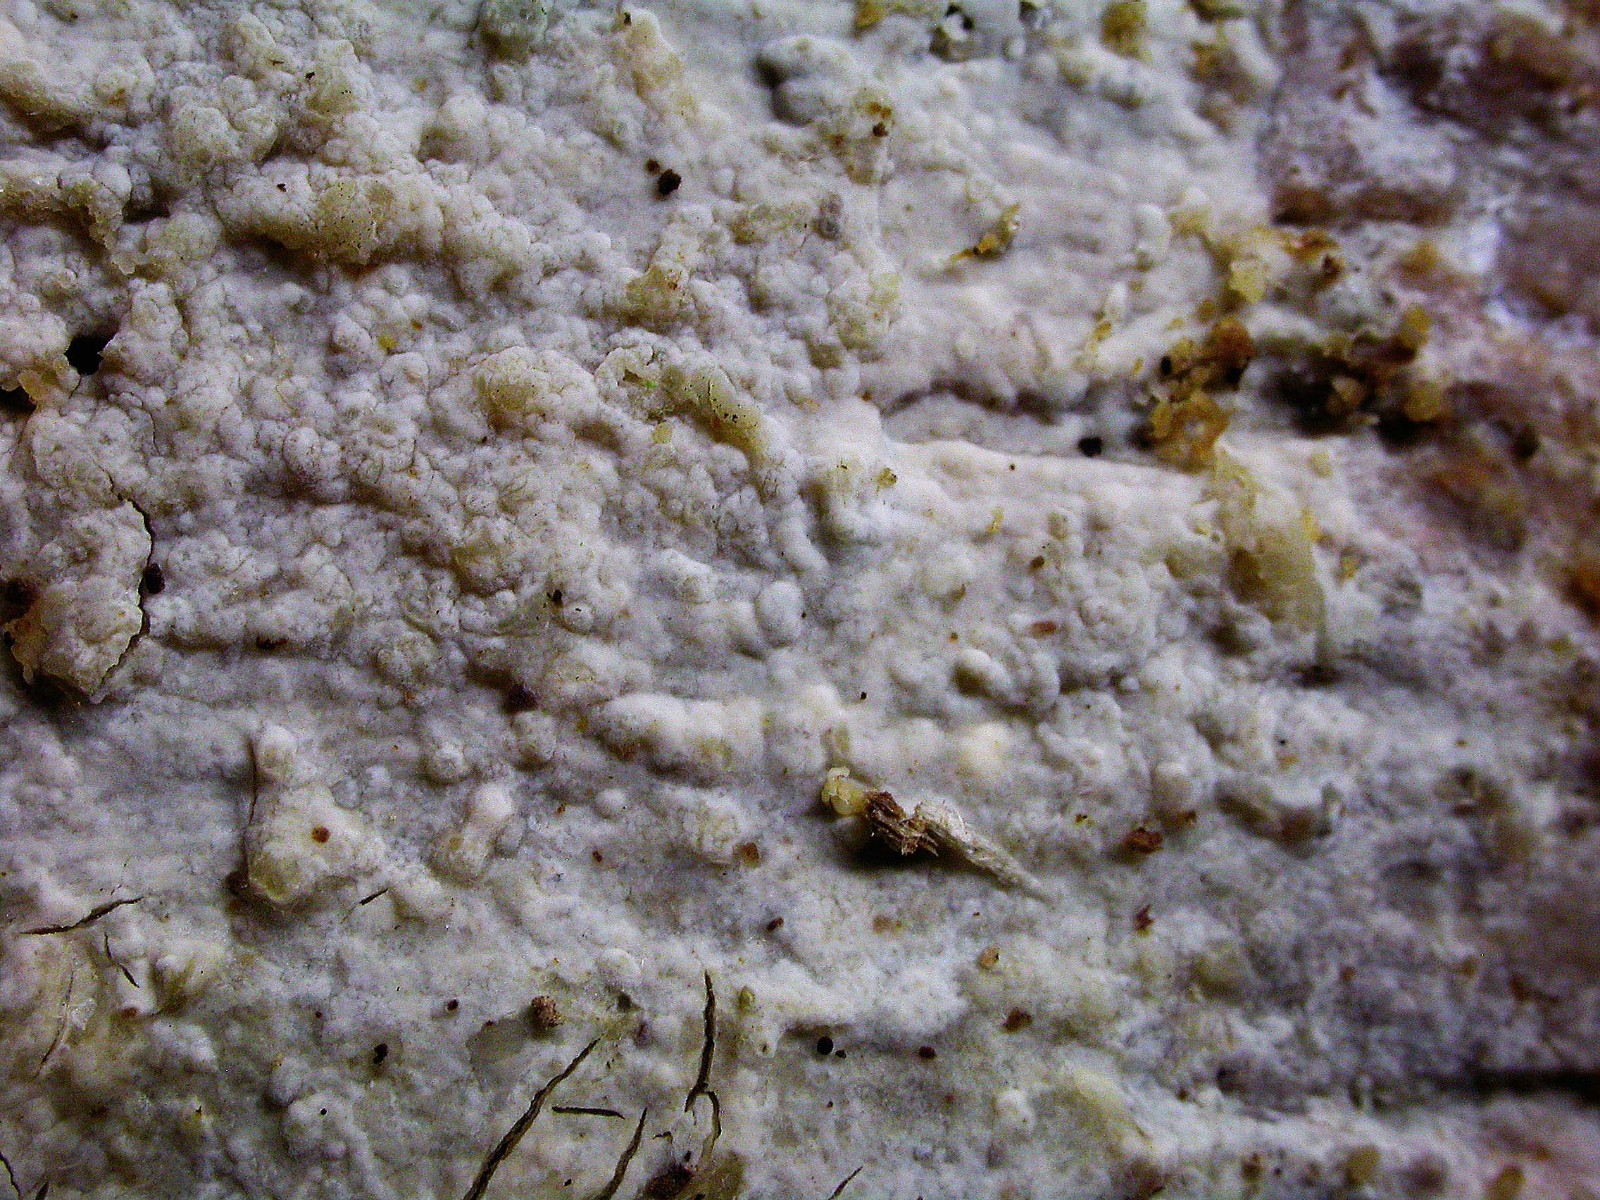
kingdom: Fungi
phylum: Basidiomycota
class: Agaricomycetes
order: Russulales
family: Stereaceae
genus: Gloeocystidiellum
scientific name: Gloeocystidiellum clavuligerum
